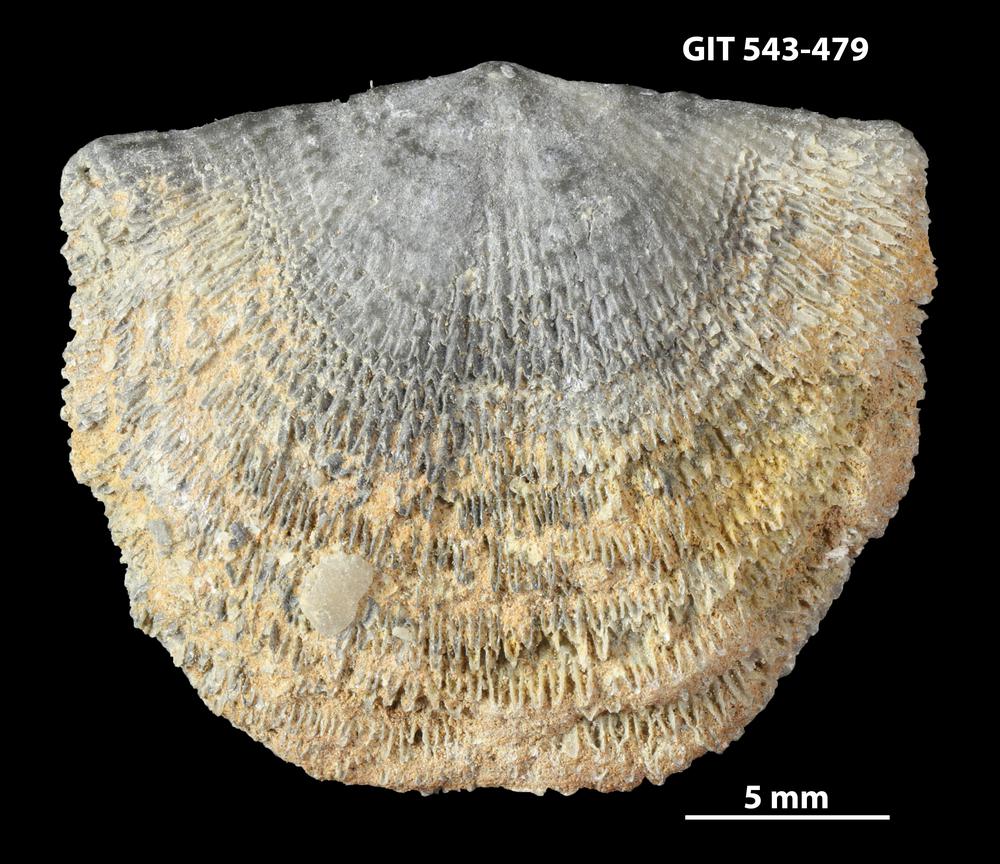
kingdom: Animalia
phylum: Brachiopoda
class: Rhynchonellata
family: Clitambonitidae
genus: Clitambonites
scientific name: Clitambonites squamatus
